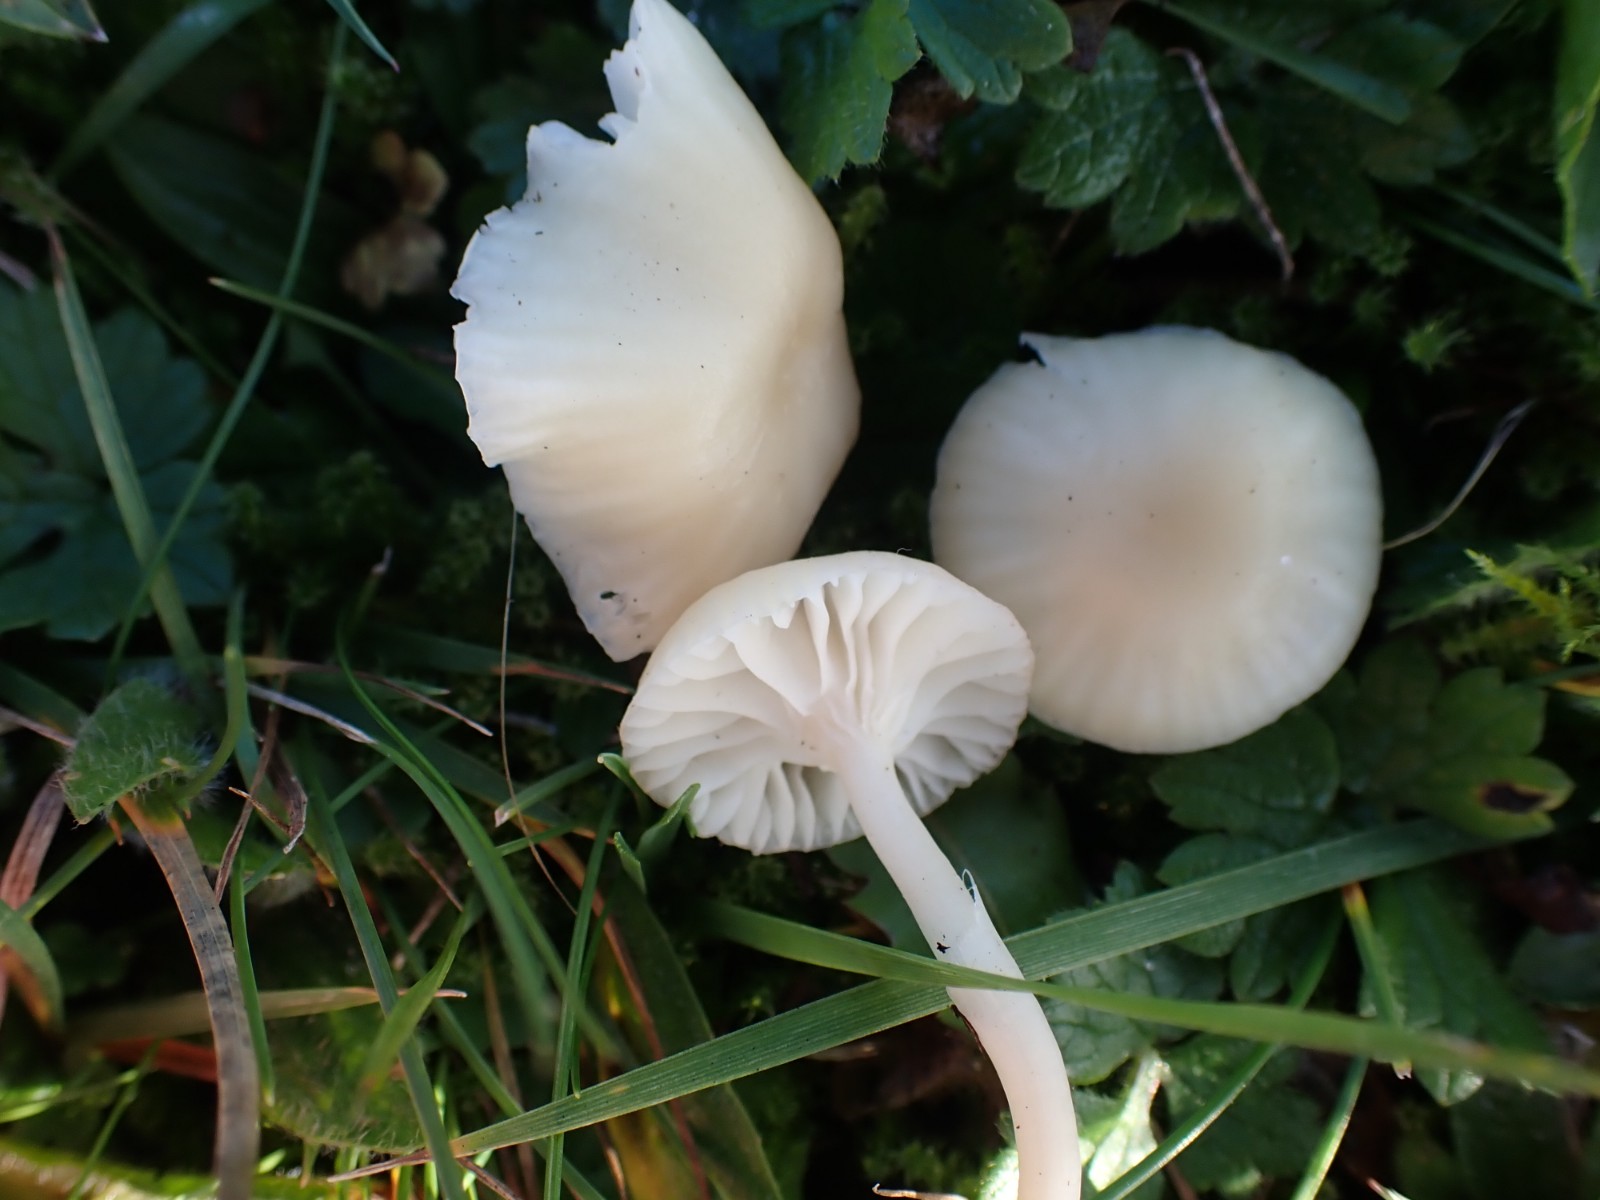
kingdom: Fungi
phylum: Basidiomycota
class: Agaricomycetes
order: Agaricales
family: Hygrophoraceae
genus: Cuphophyllus
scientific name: Cuphophyllus russocoriaceus
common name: ruslæder-vokshat
